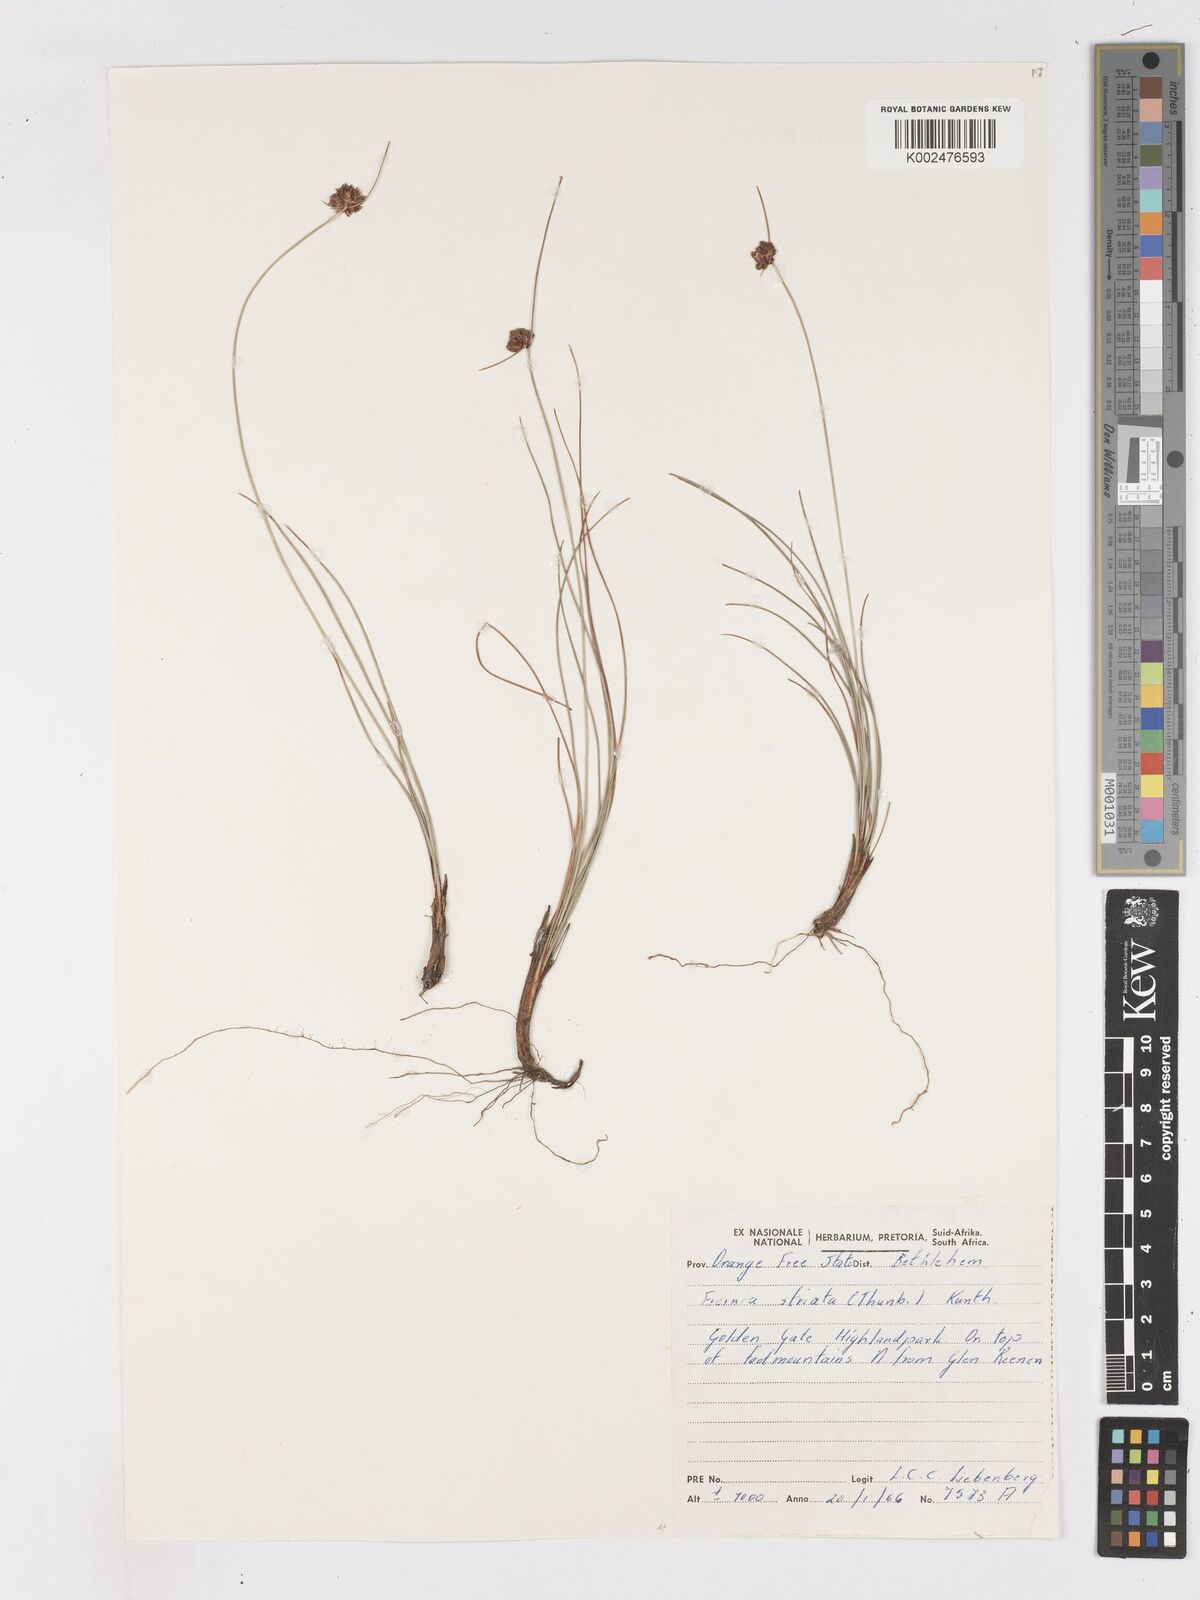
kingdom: Plantae
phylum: Tracheophyta
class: Liliopsida
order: Poales
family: Cyperaceae
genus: Ficinia
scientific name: Ficinia
